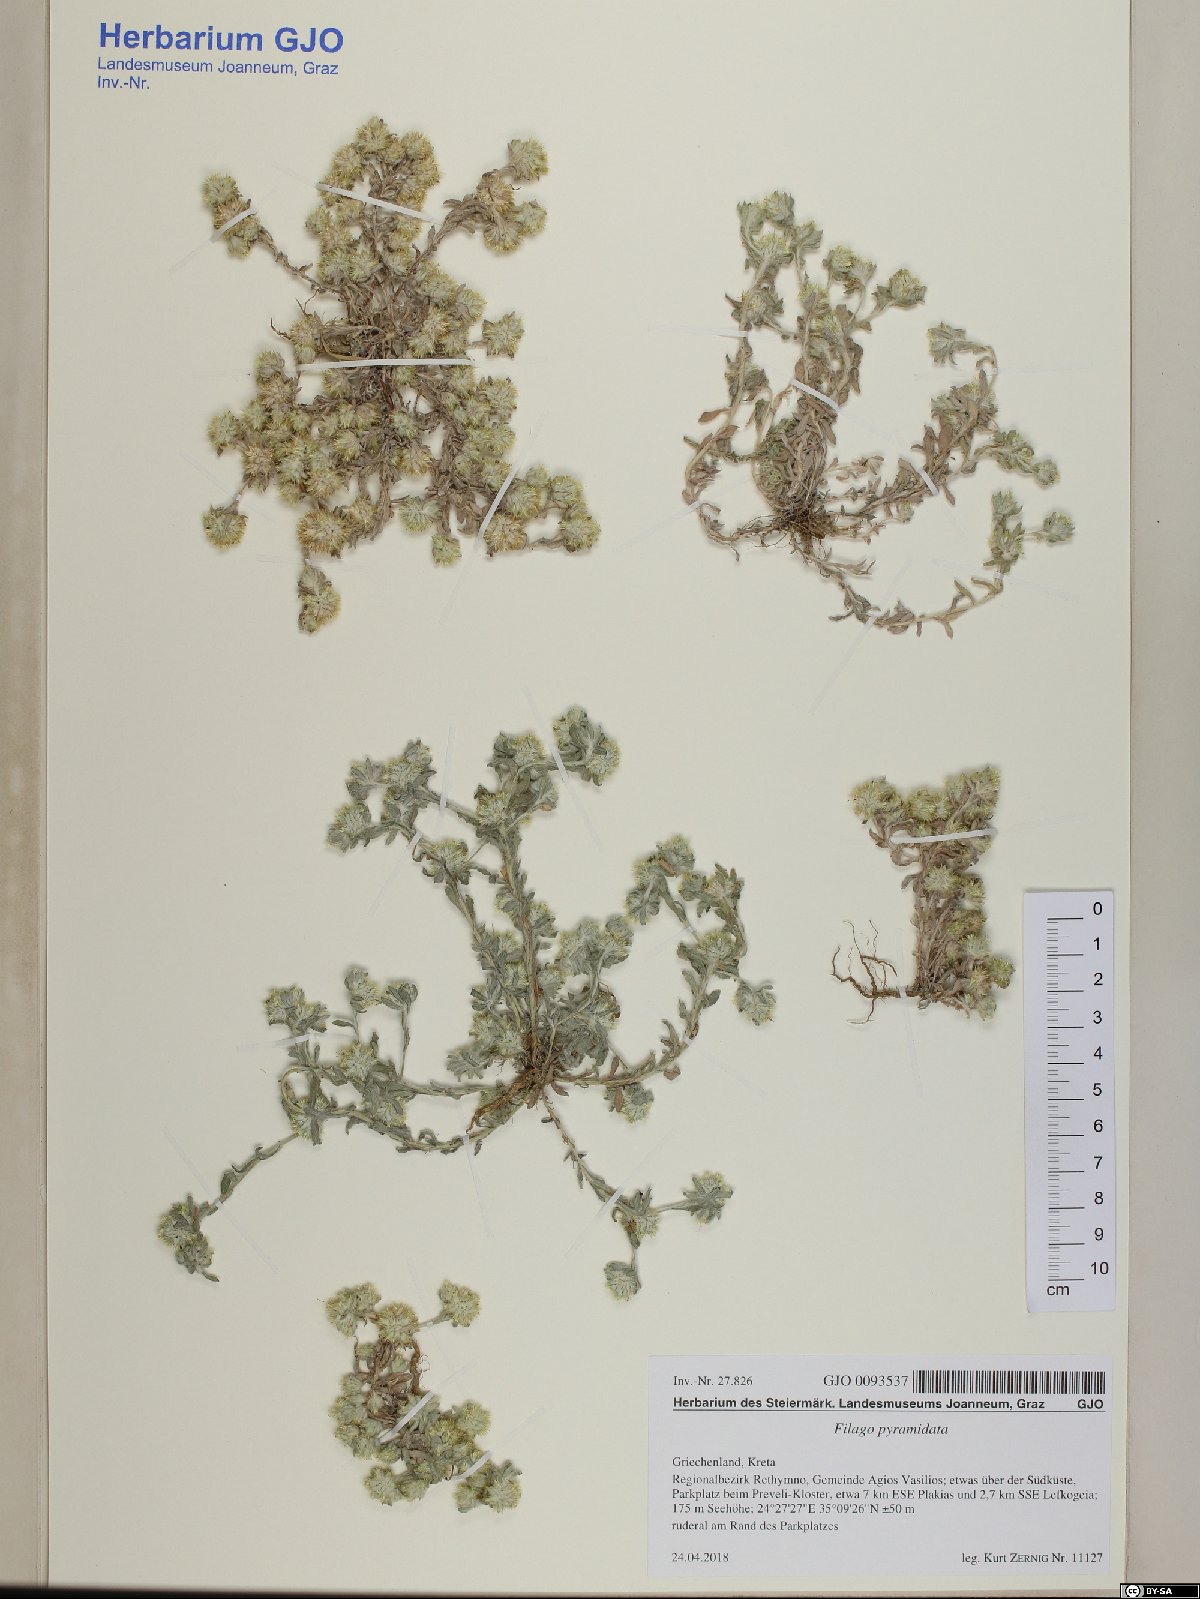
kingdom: Plantae
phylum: Tracheophyta
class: Magnoliopsida
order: Asterales
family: Asteraceae
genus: Filago
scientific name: Filago pyramidata
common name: Broad-leaved cudweed
